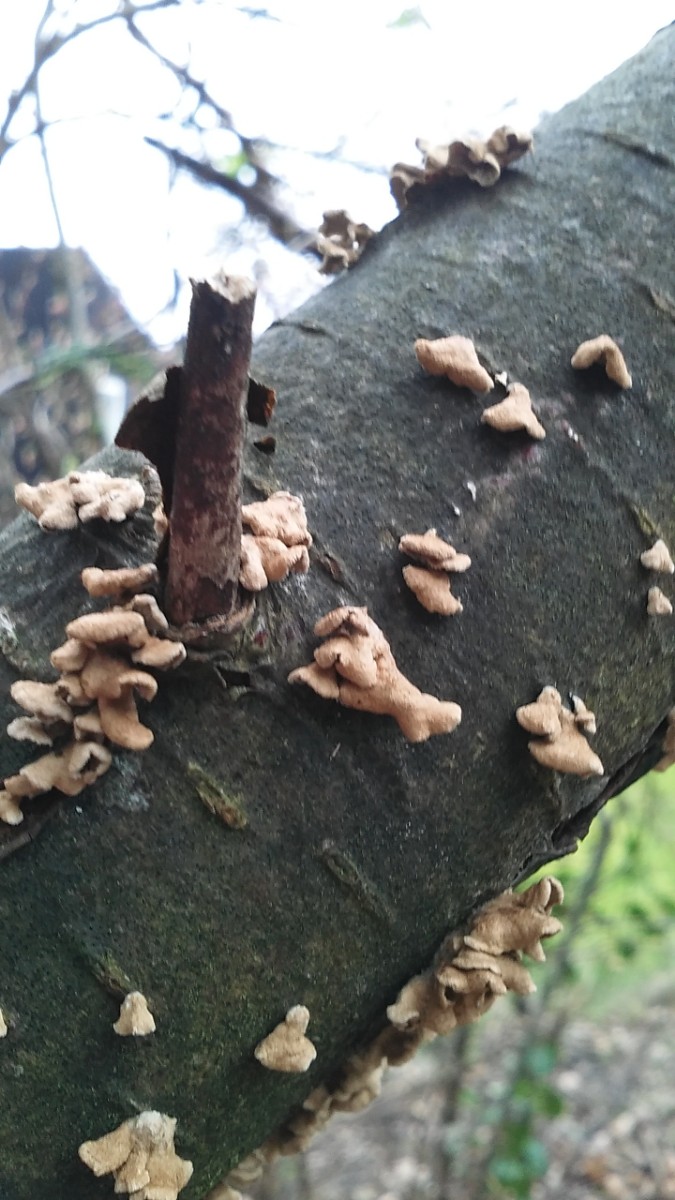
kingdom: Fungi
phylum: Basidiomycota
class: Agaricomycetes
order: Amylocorticiales
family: Amylocorticiaceae
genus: Plicaturopsis
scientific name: Plicaturopsis crispa
